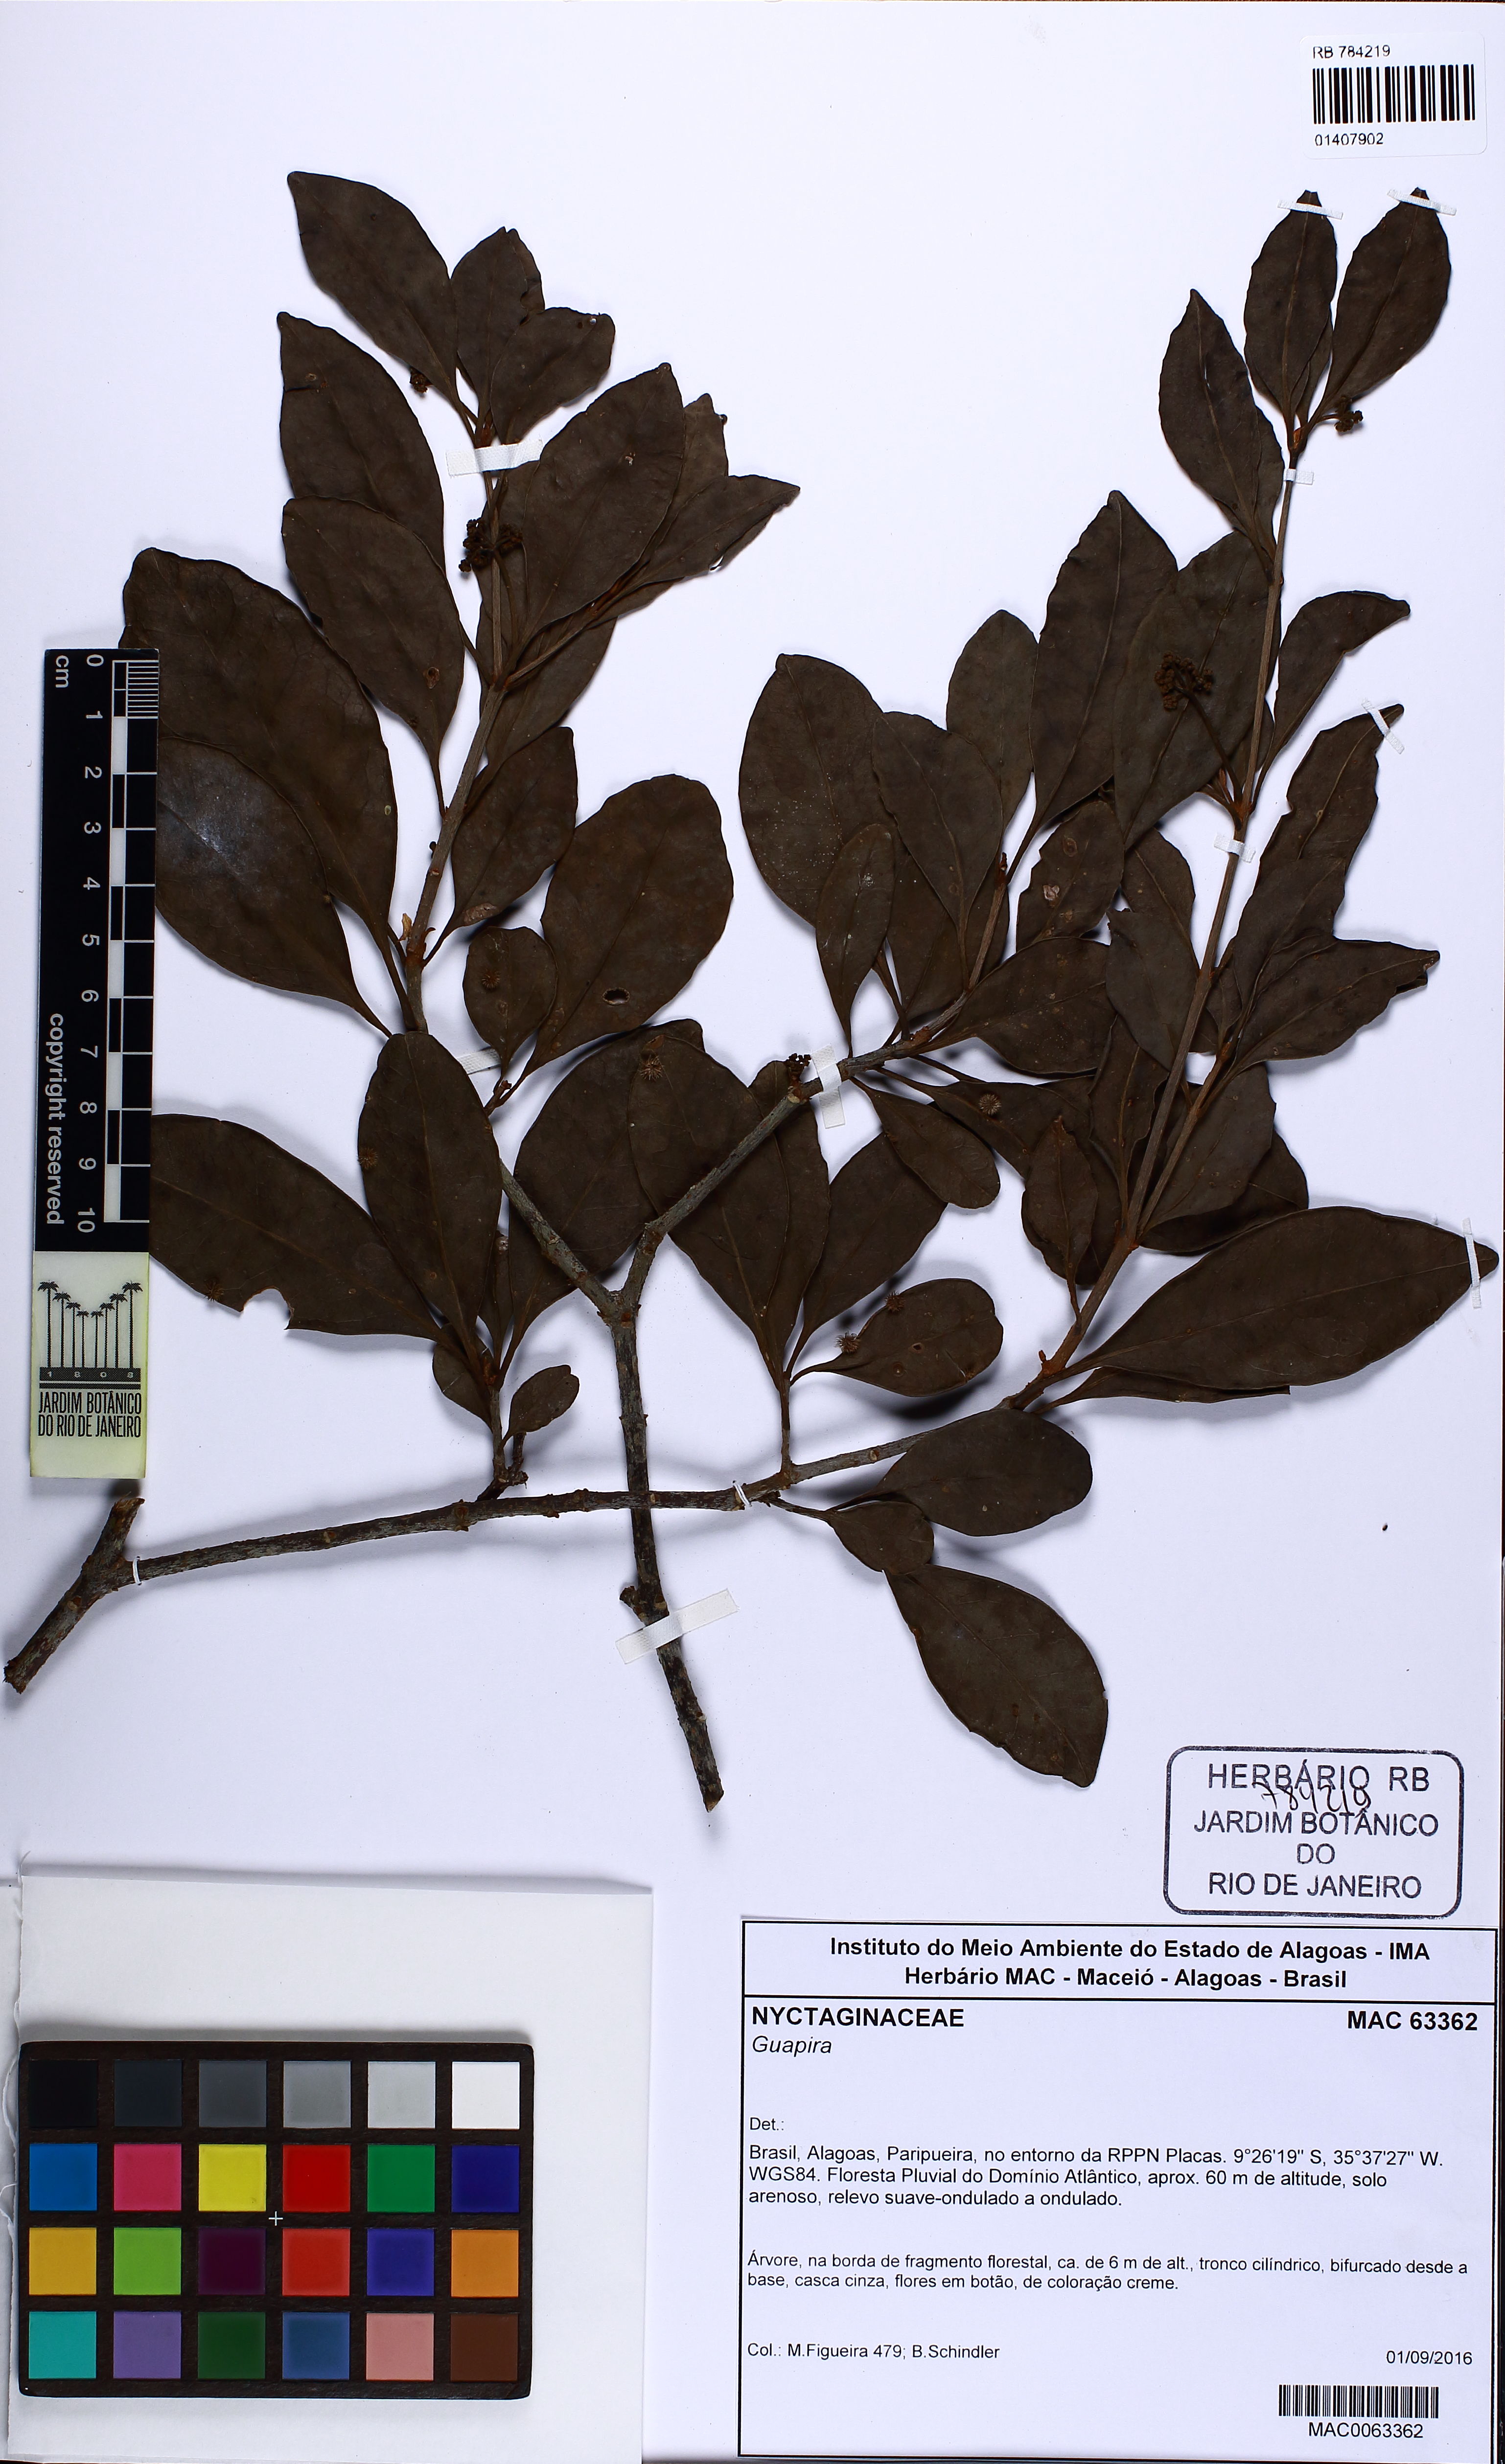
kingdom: Plantae
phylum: Tracheophyta
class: Magnoliopsida
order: Caryophyllales
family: Nyctaginaceae
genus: Guapira
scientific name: Guapira
